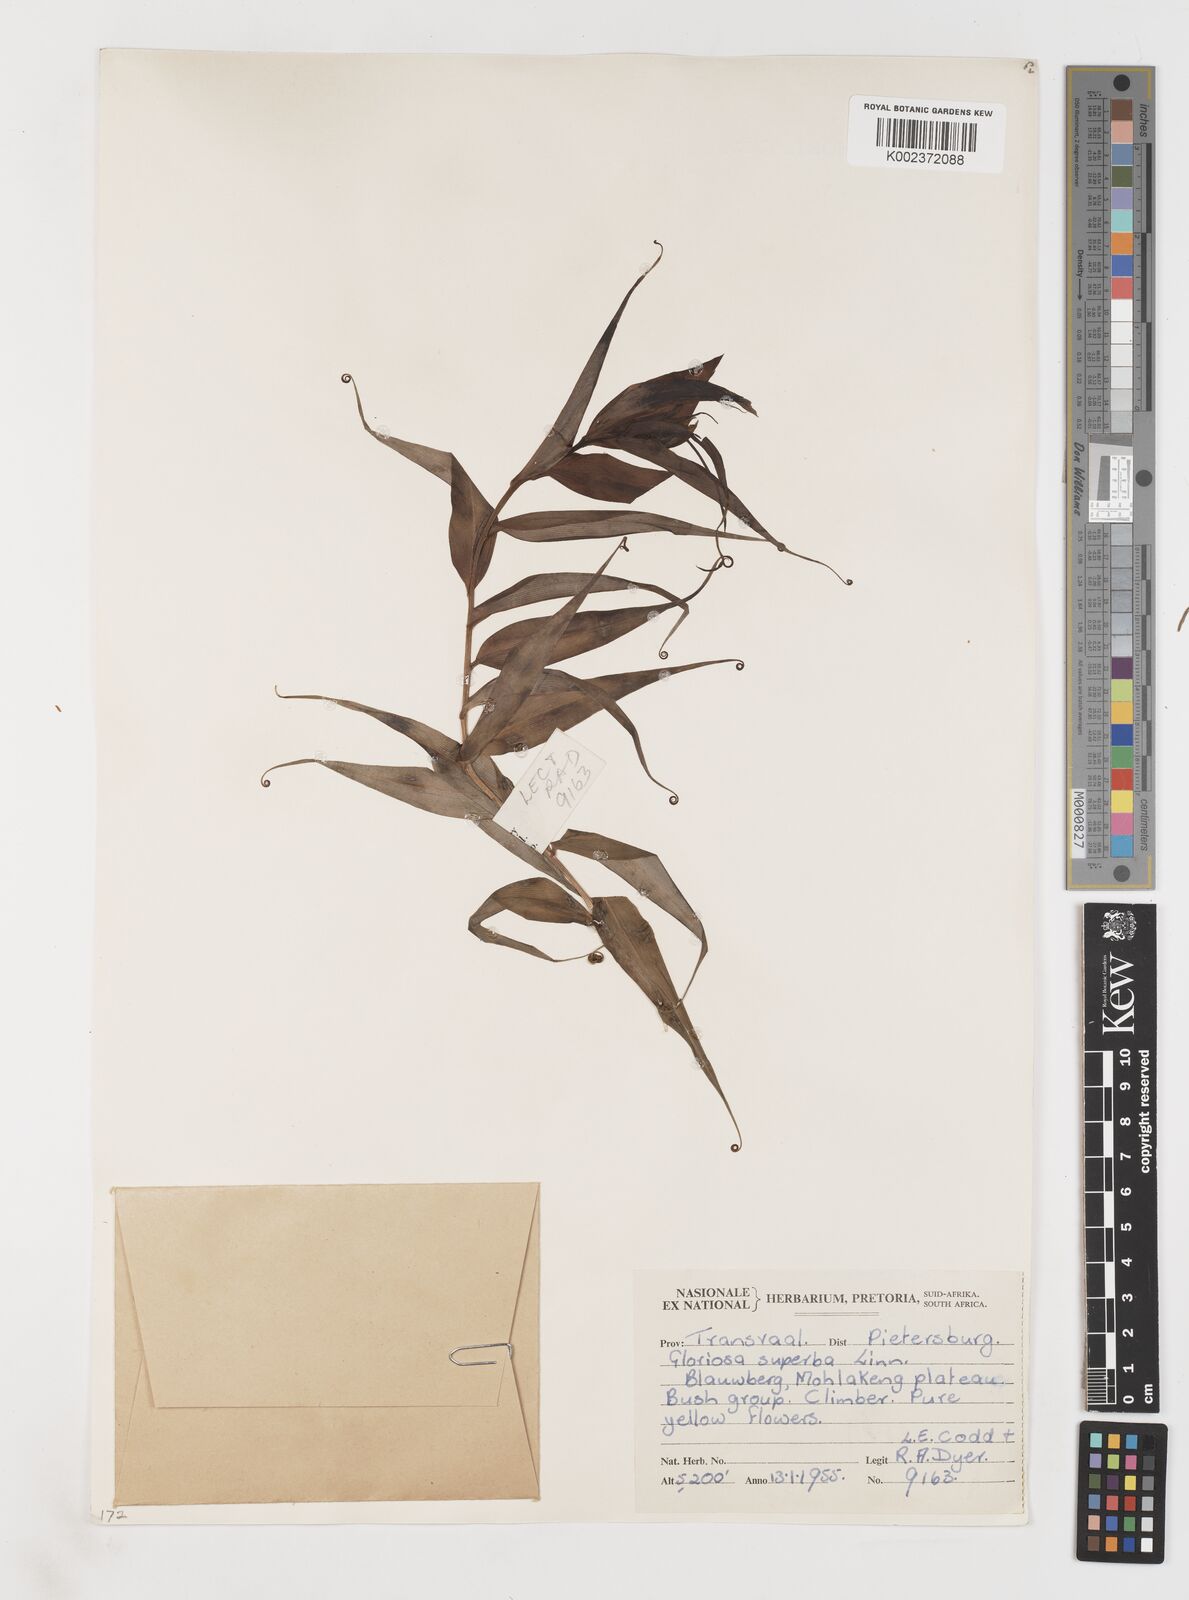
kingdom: Plantae
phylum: Tracheophyta
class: Liliopsida
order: Liliales
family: Colchicaceae
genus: Gloriosa
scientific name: Gloriosa superba
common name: Flame lily
